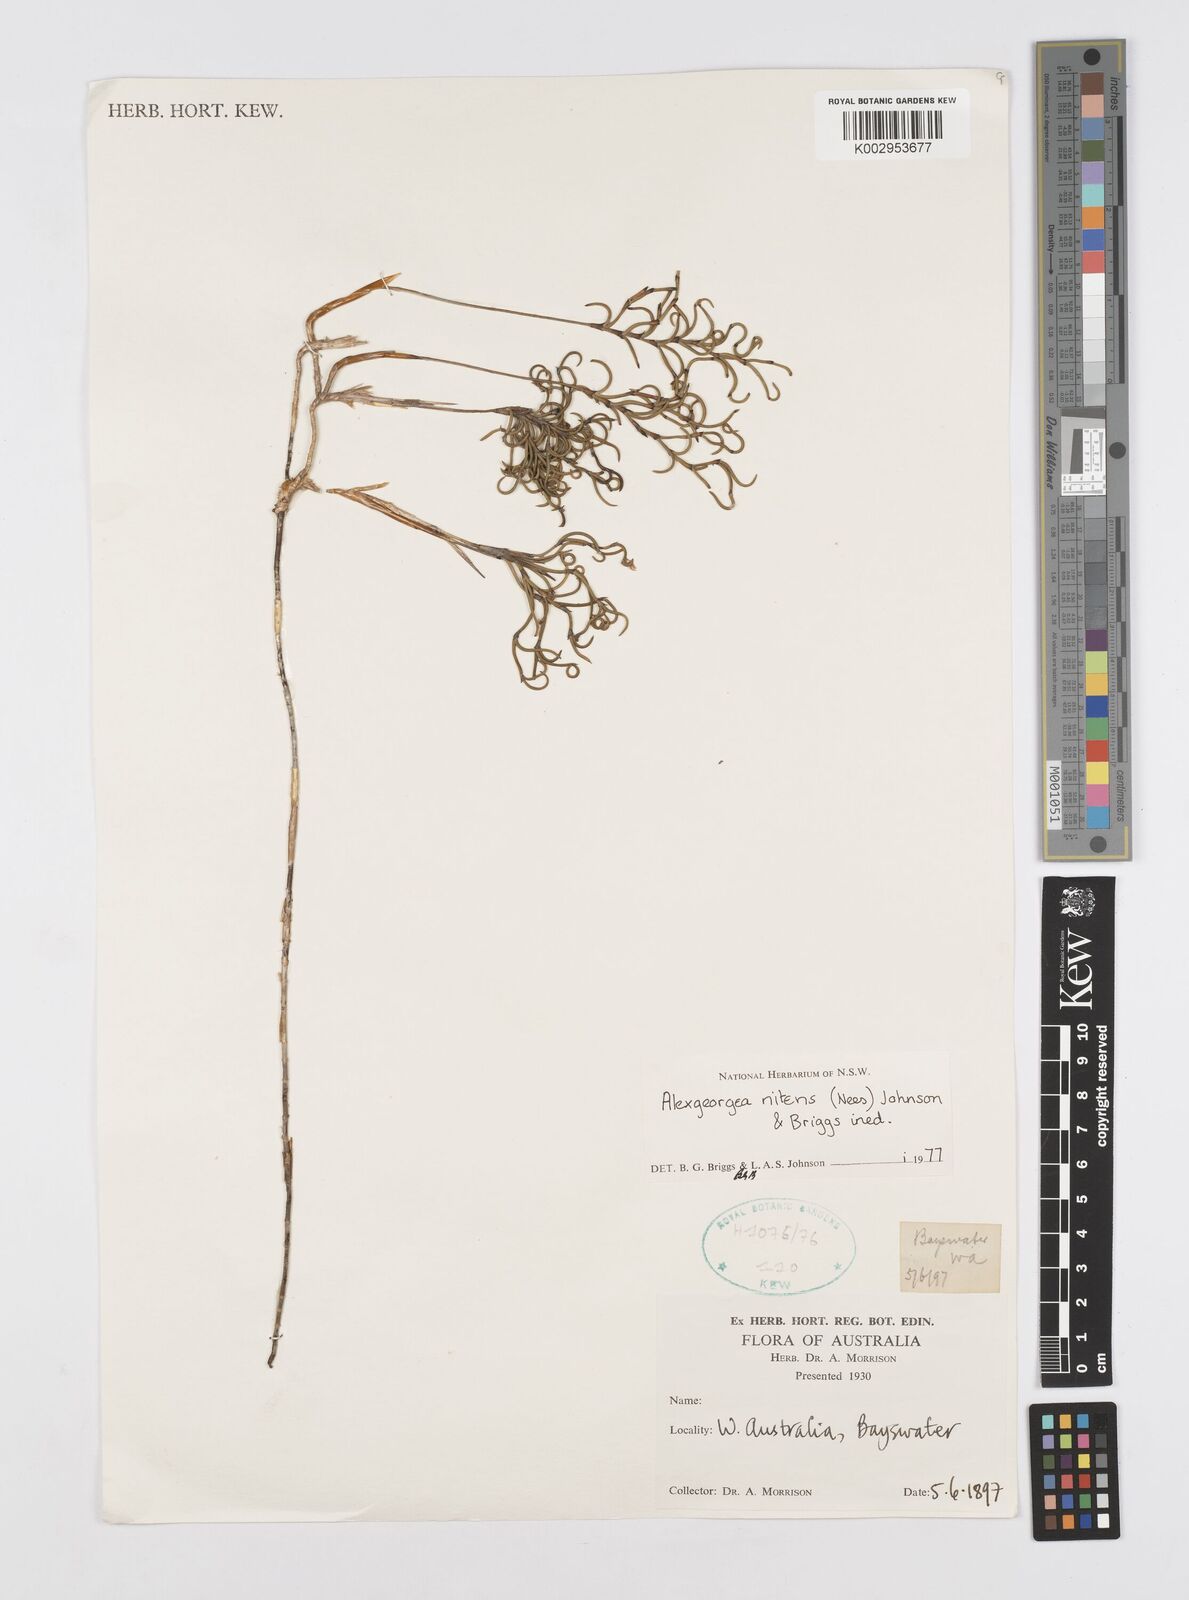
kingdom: Plantae
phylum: Tracheophyta
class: Liliopsida
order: Poales
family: Restionaceae
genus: Alexgeorgea
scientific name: Alexgeorgea nitens
